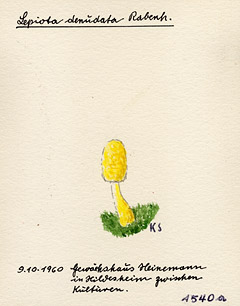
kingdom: Fungi
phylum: Basidiomycota
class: Agaricomycetes
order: Agaricales
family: Agaricaceae
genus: Leucocoprinus
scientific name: Leucocoprinus straminellus
